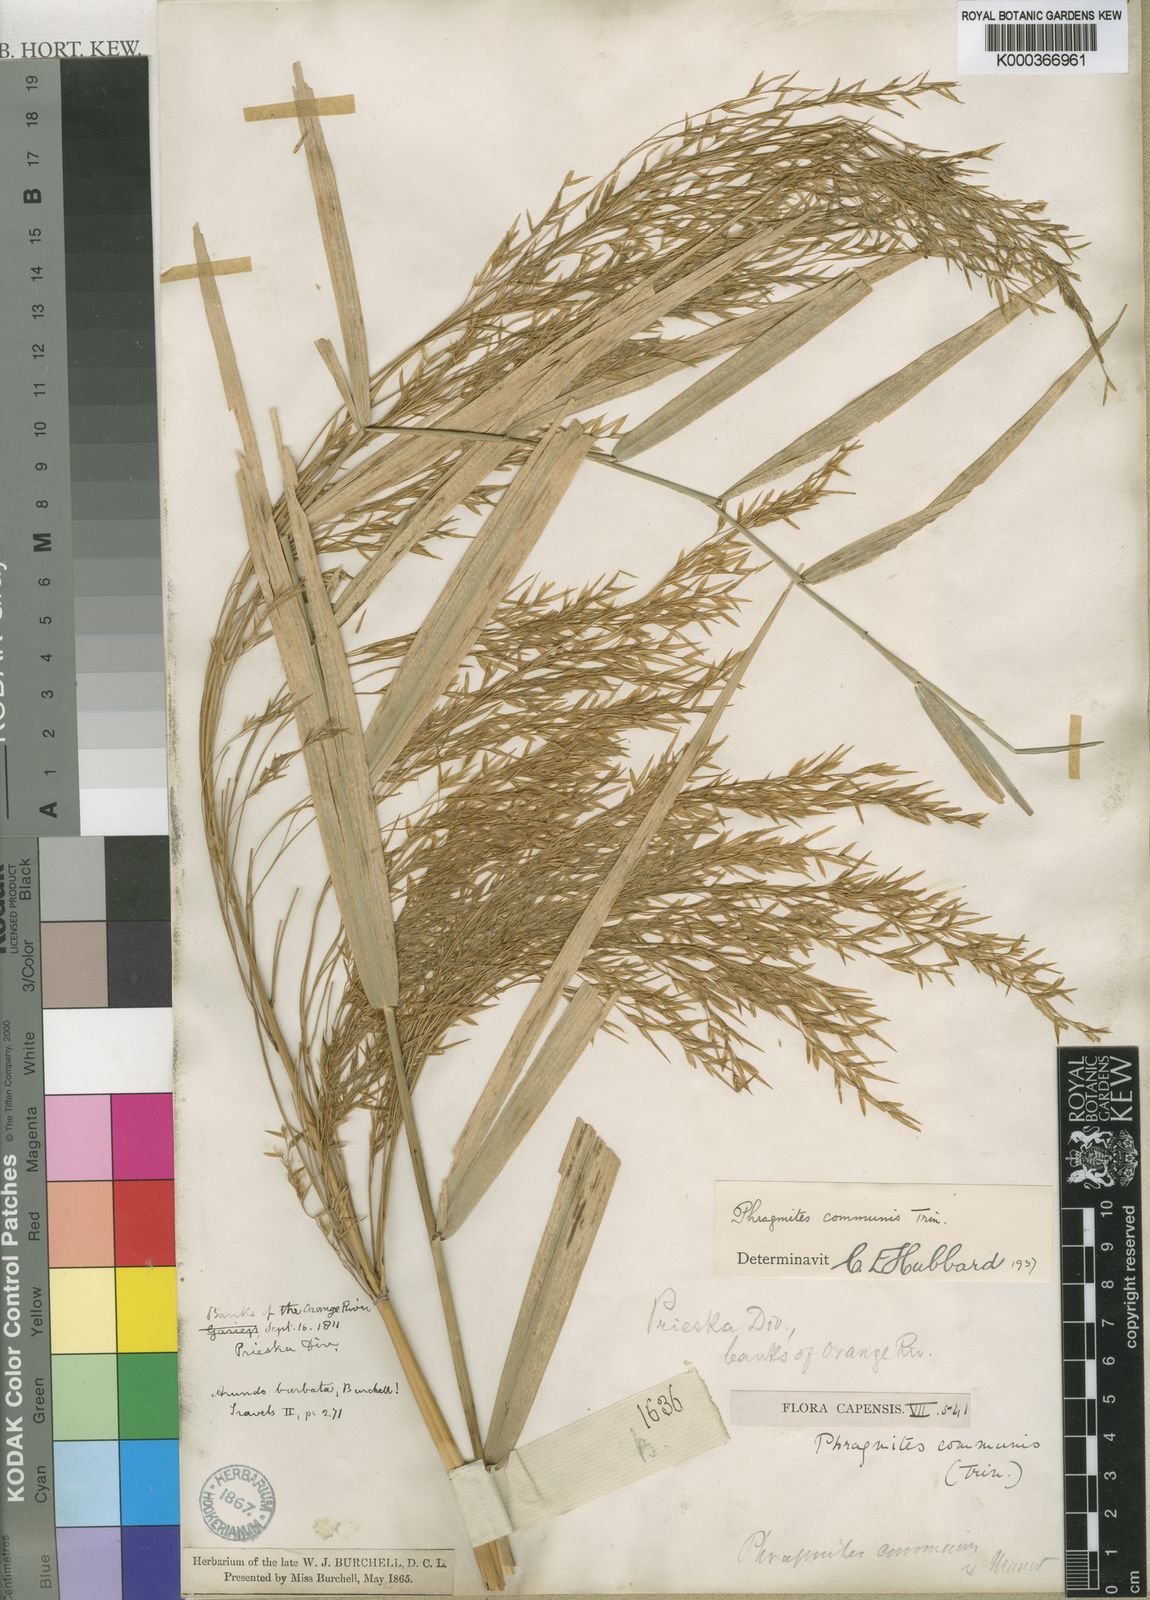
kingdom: Plantae
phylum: Tracheophyta
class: Liliopsida
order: Poales
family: Poaceae
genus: Phragmites
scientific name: Phragmites australis
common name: Common reed
